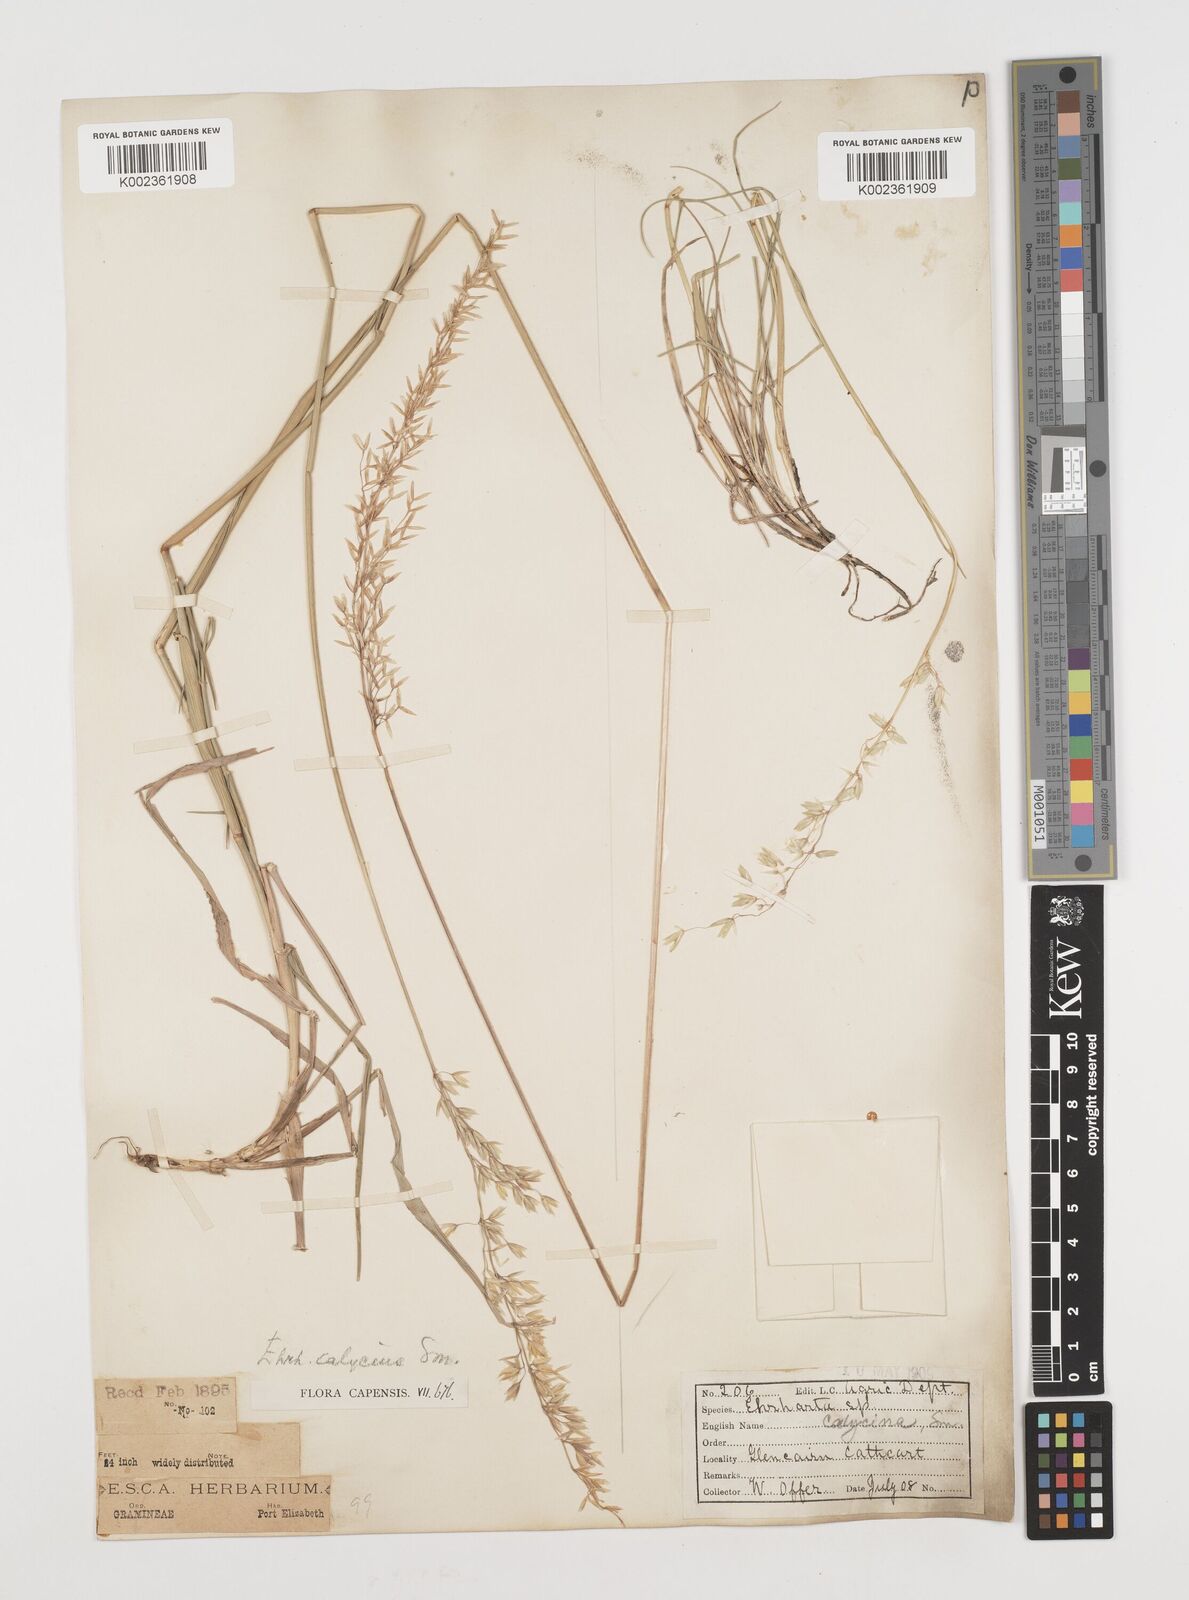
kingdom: Plantae
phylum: Tracheophyta
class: Liliopsida
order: Poales
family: Poaceae
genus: Ehrharta
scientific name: Ehrharta calycina
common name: Perennial veldtgrass
